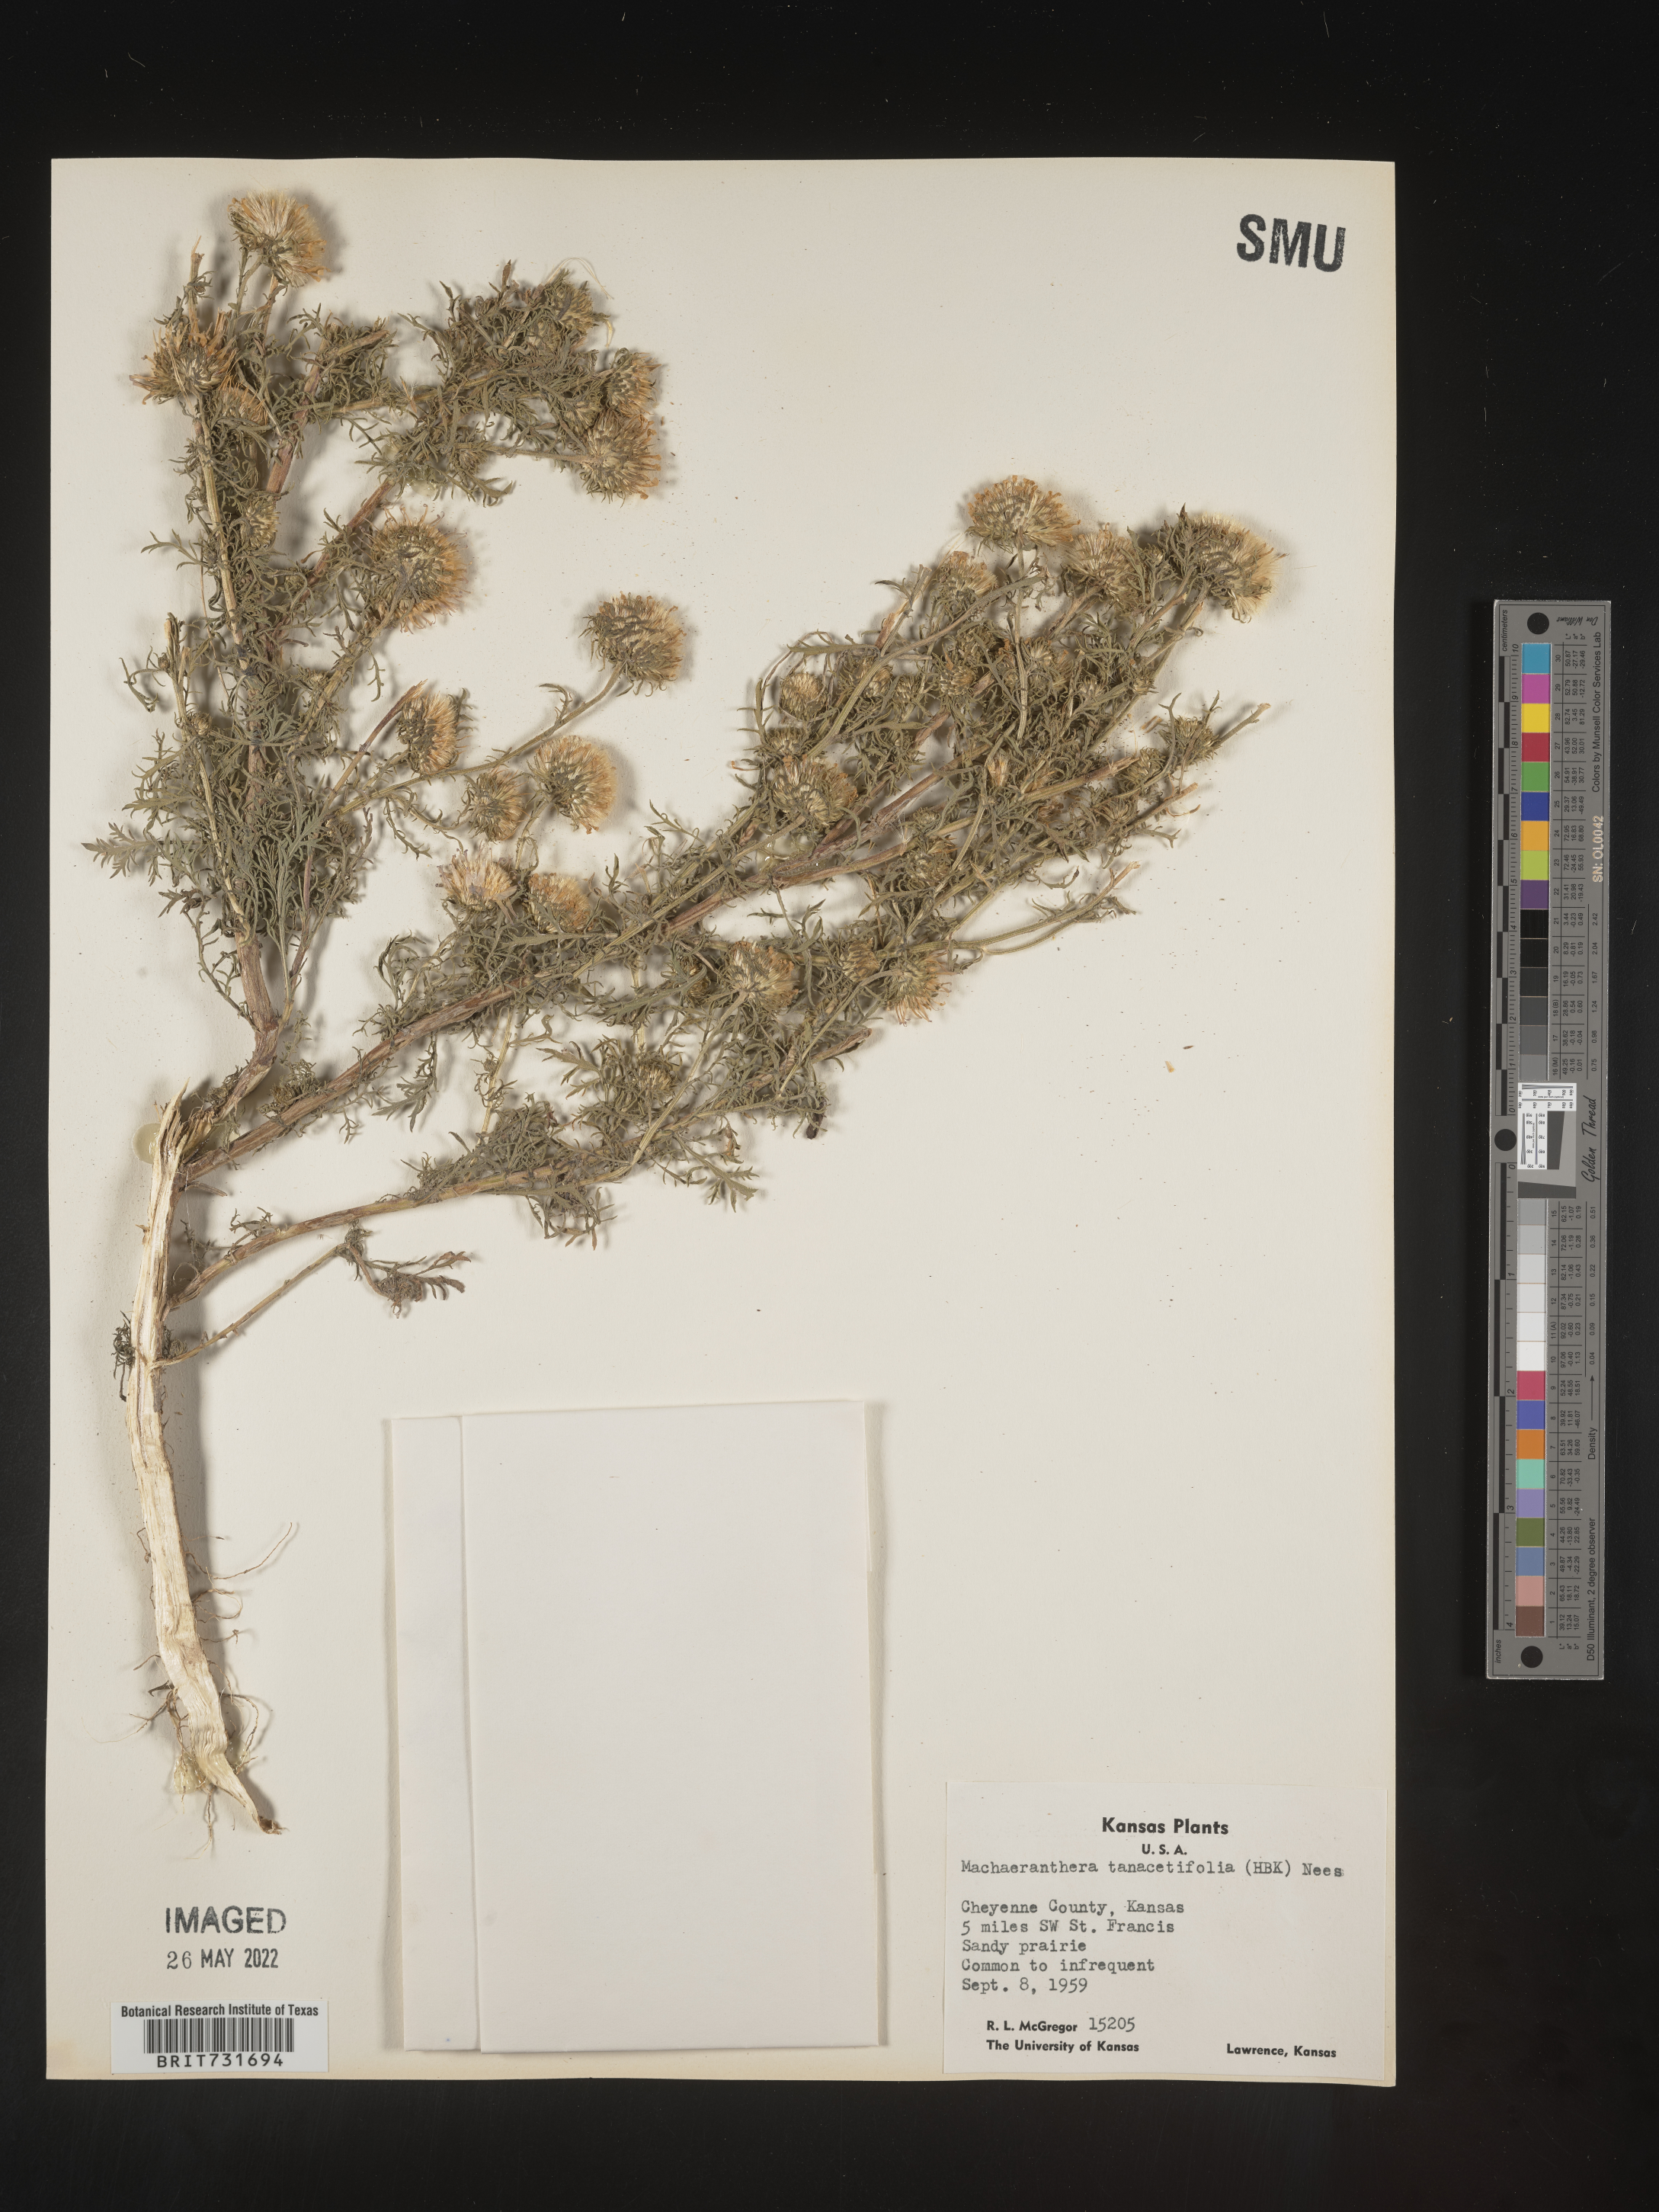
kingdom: Plantae
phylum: Tracheophyta
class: Magnoliopsida
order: Asterales
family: Asteraceae
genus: Machaeranthera
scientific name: Machaeranthera tanacetifolia
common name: Tansy-aster
